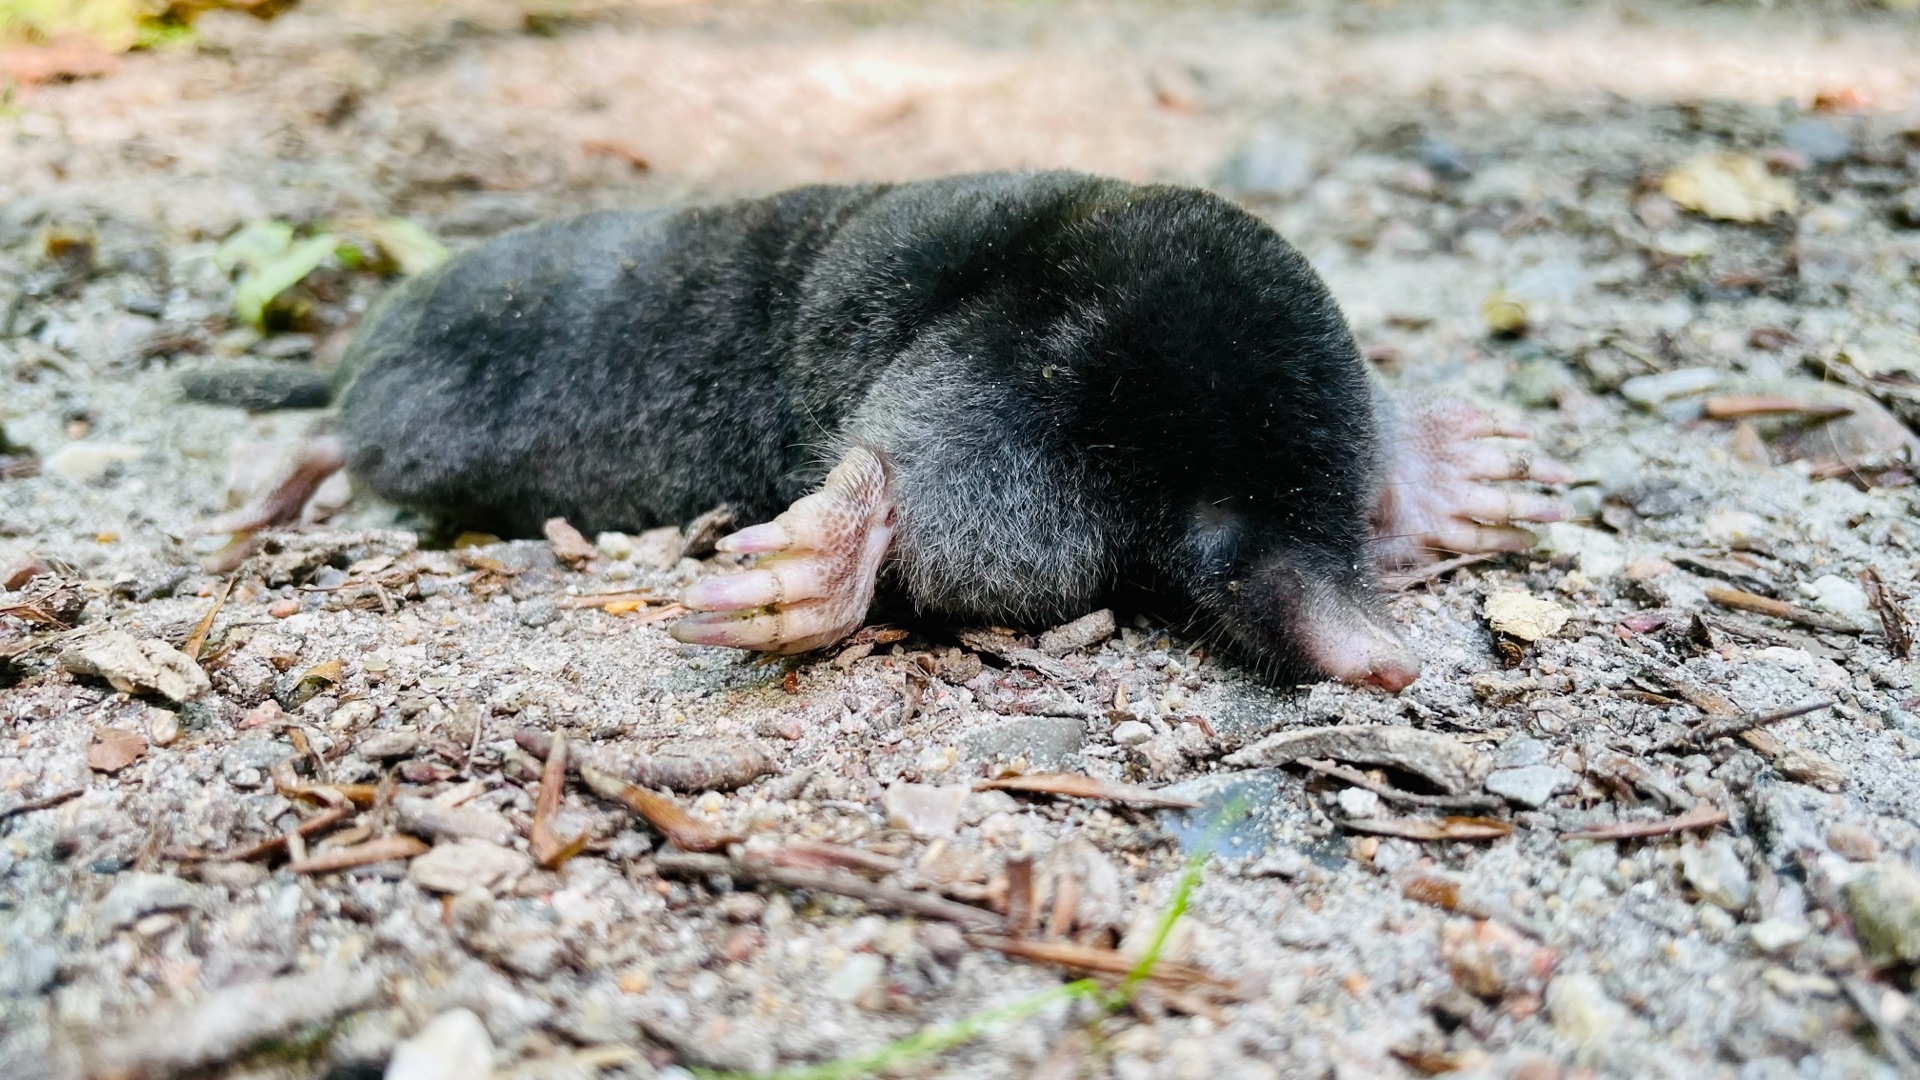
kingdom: Animalia
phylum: Chordata
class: Mammalia
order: Soricomorpha
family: Talpidae
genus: Talpa
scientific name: Talpa europaea
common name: Muldvarp
